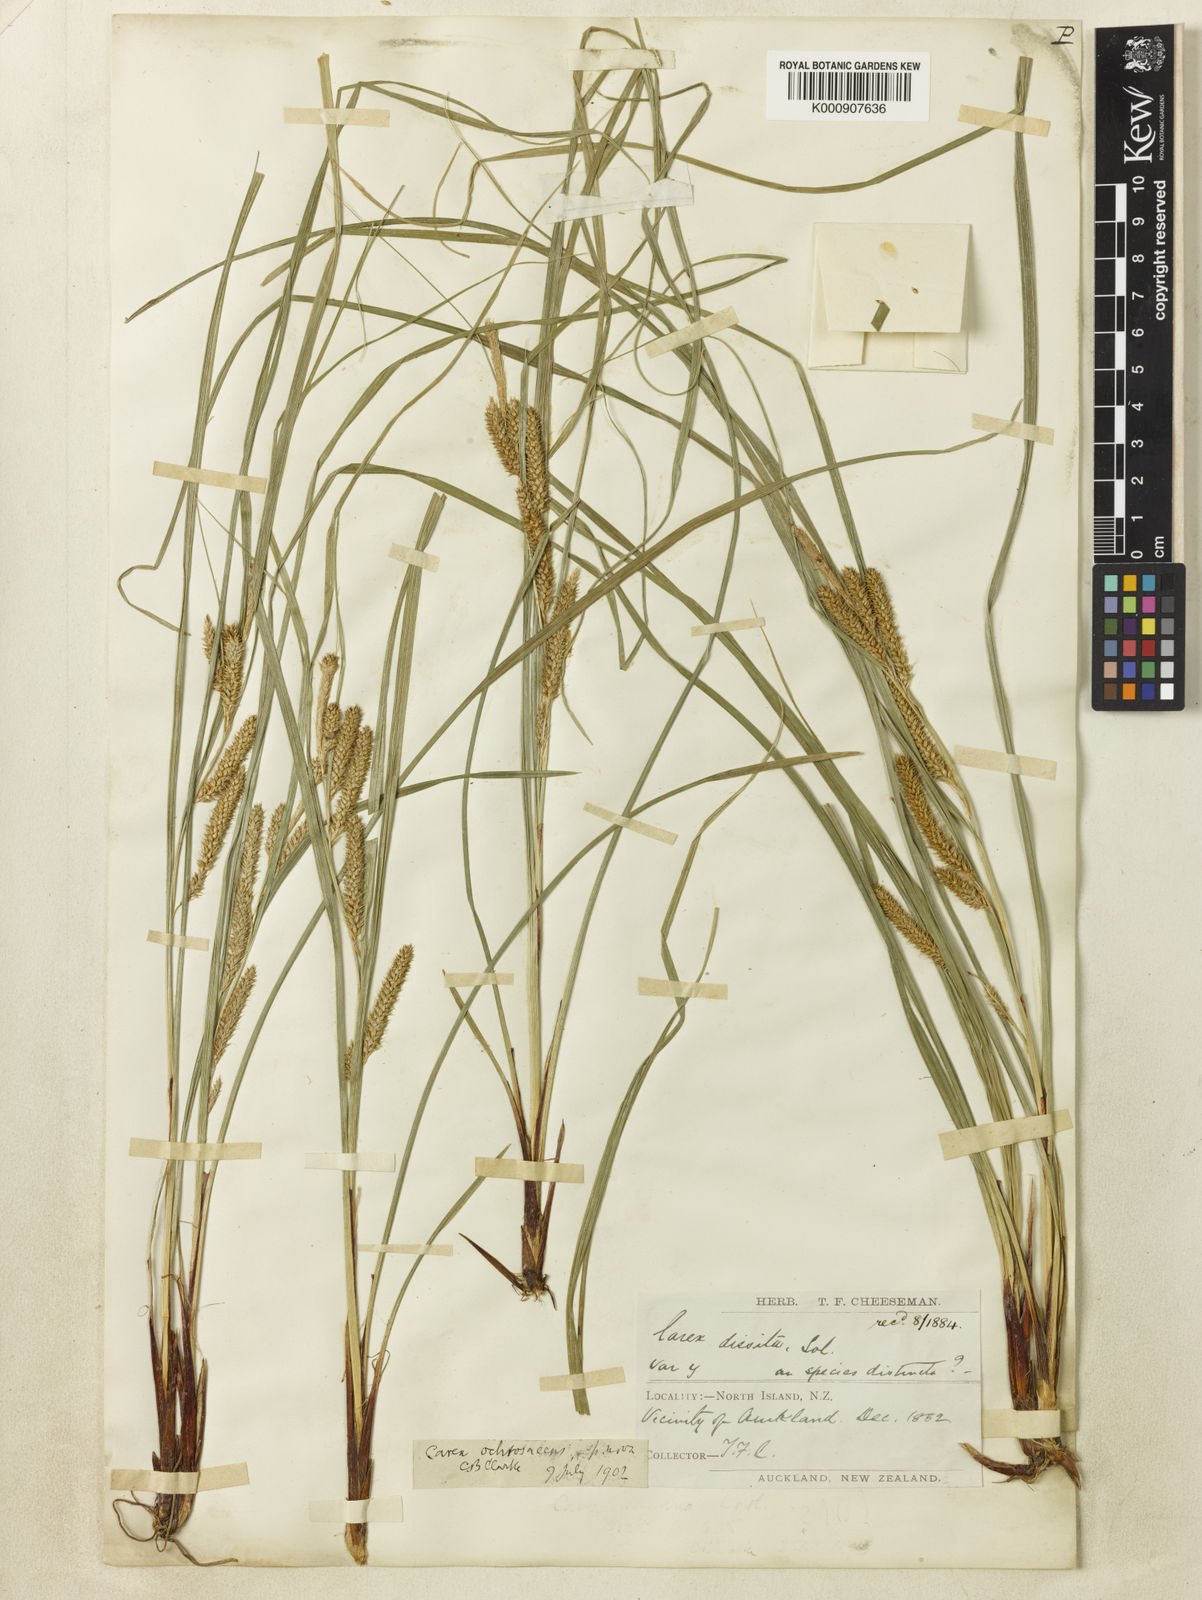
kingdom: Plantae
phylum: Tracheophyta
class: Liliopsida
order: Poales
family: Cyperaceae
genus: Carex
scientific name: Carex ochrosaccus
